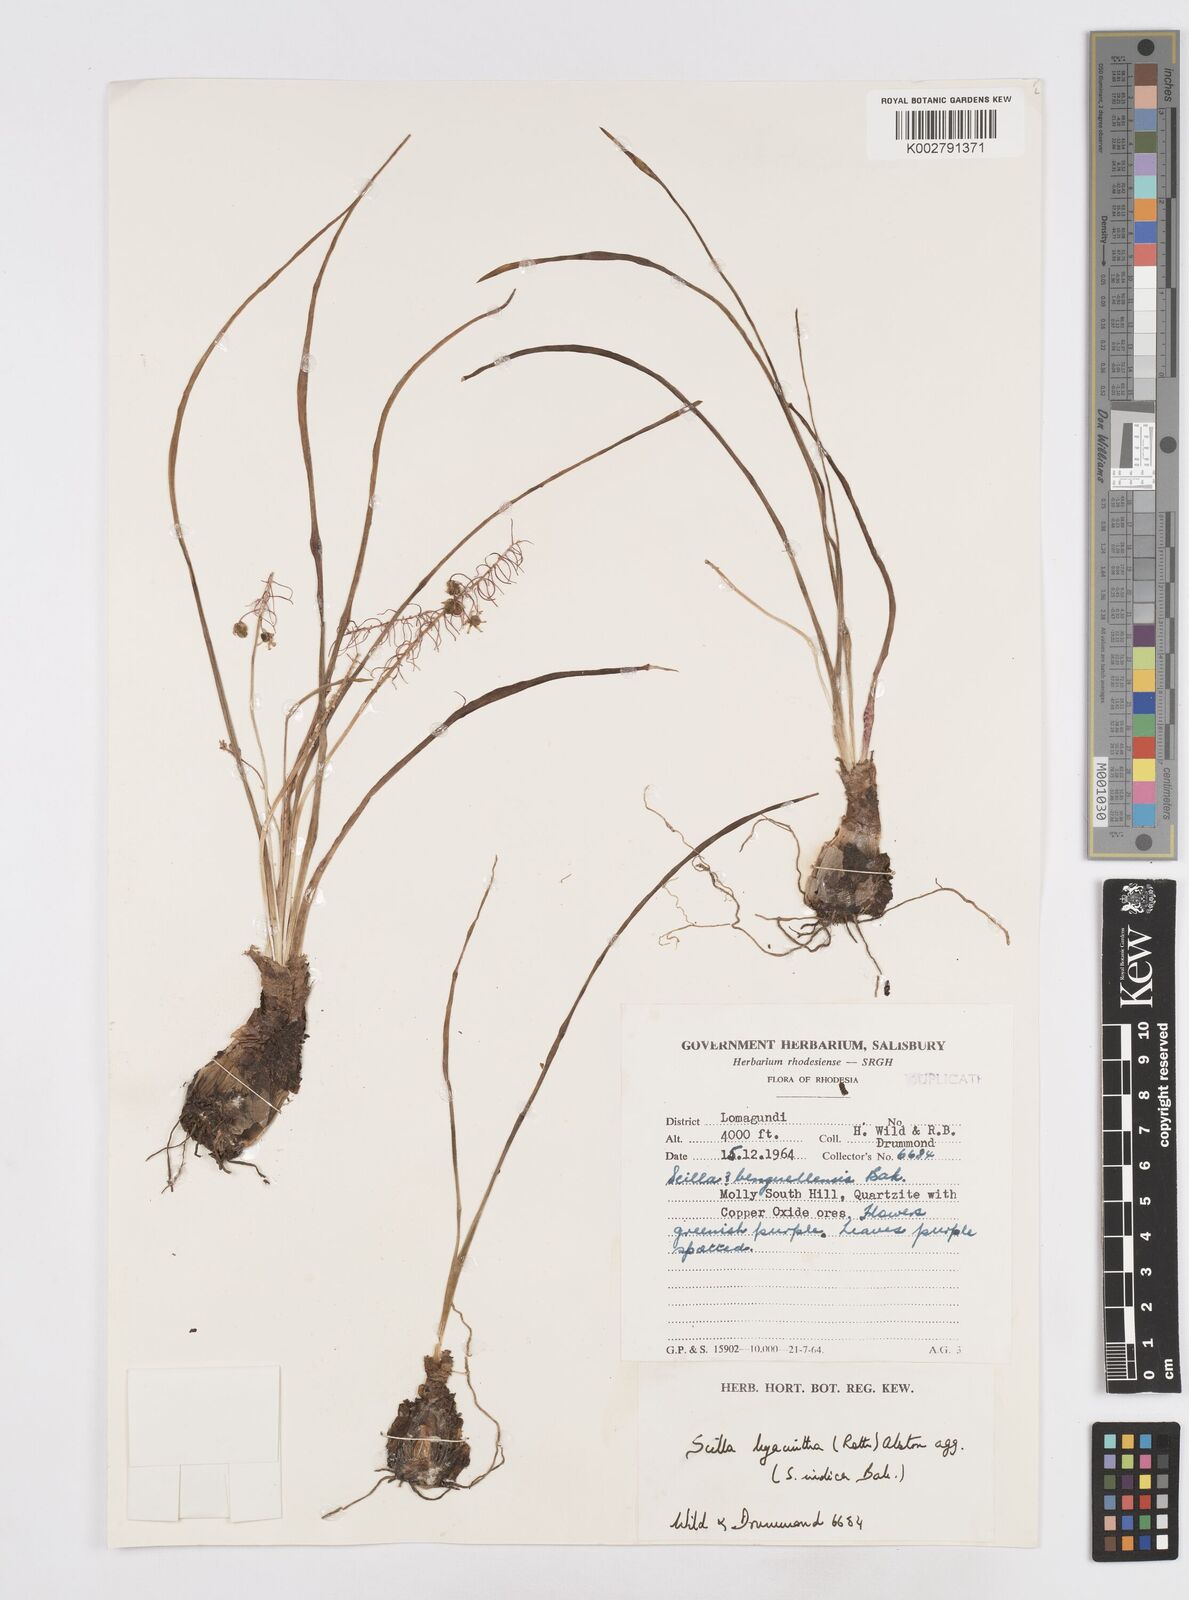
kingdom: Plantae
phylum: Tracheophyta
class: Liliopsida
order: Asparagales
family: Asparagaceae
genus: Ledebouria
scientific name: Ledebouria revoluta
